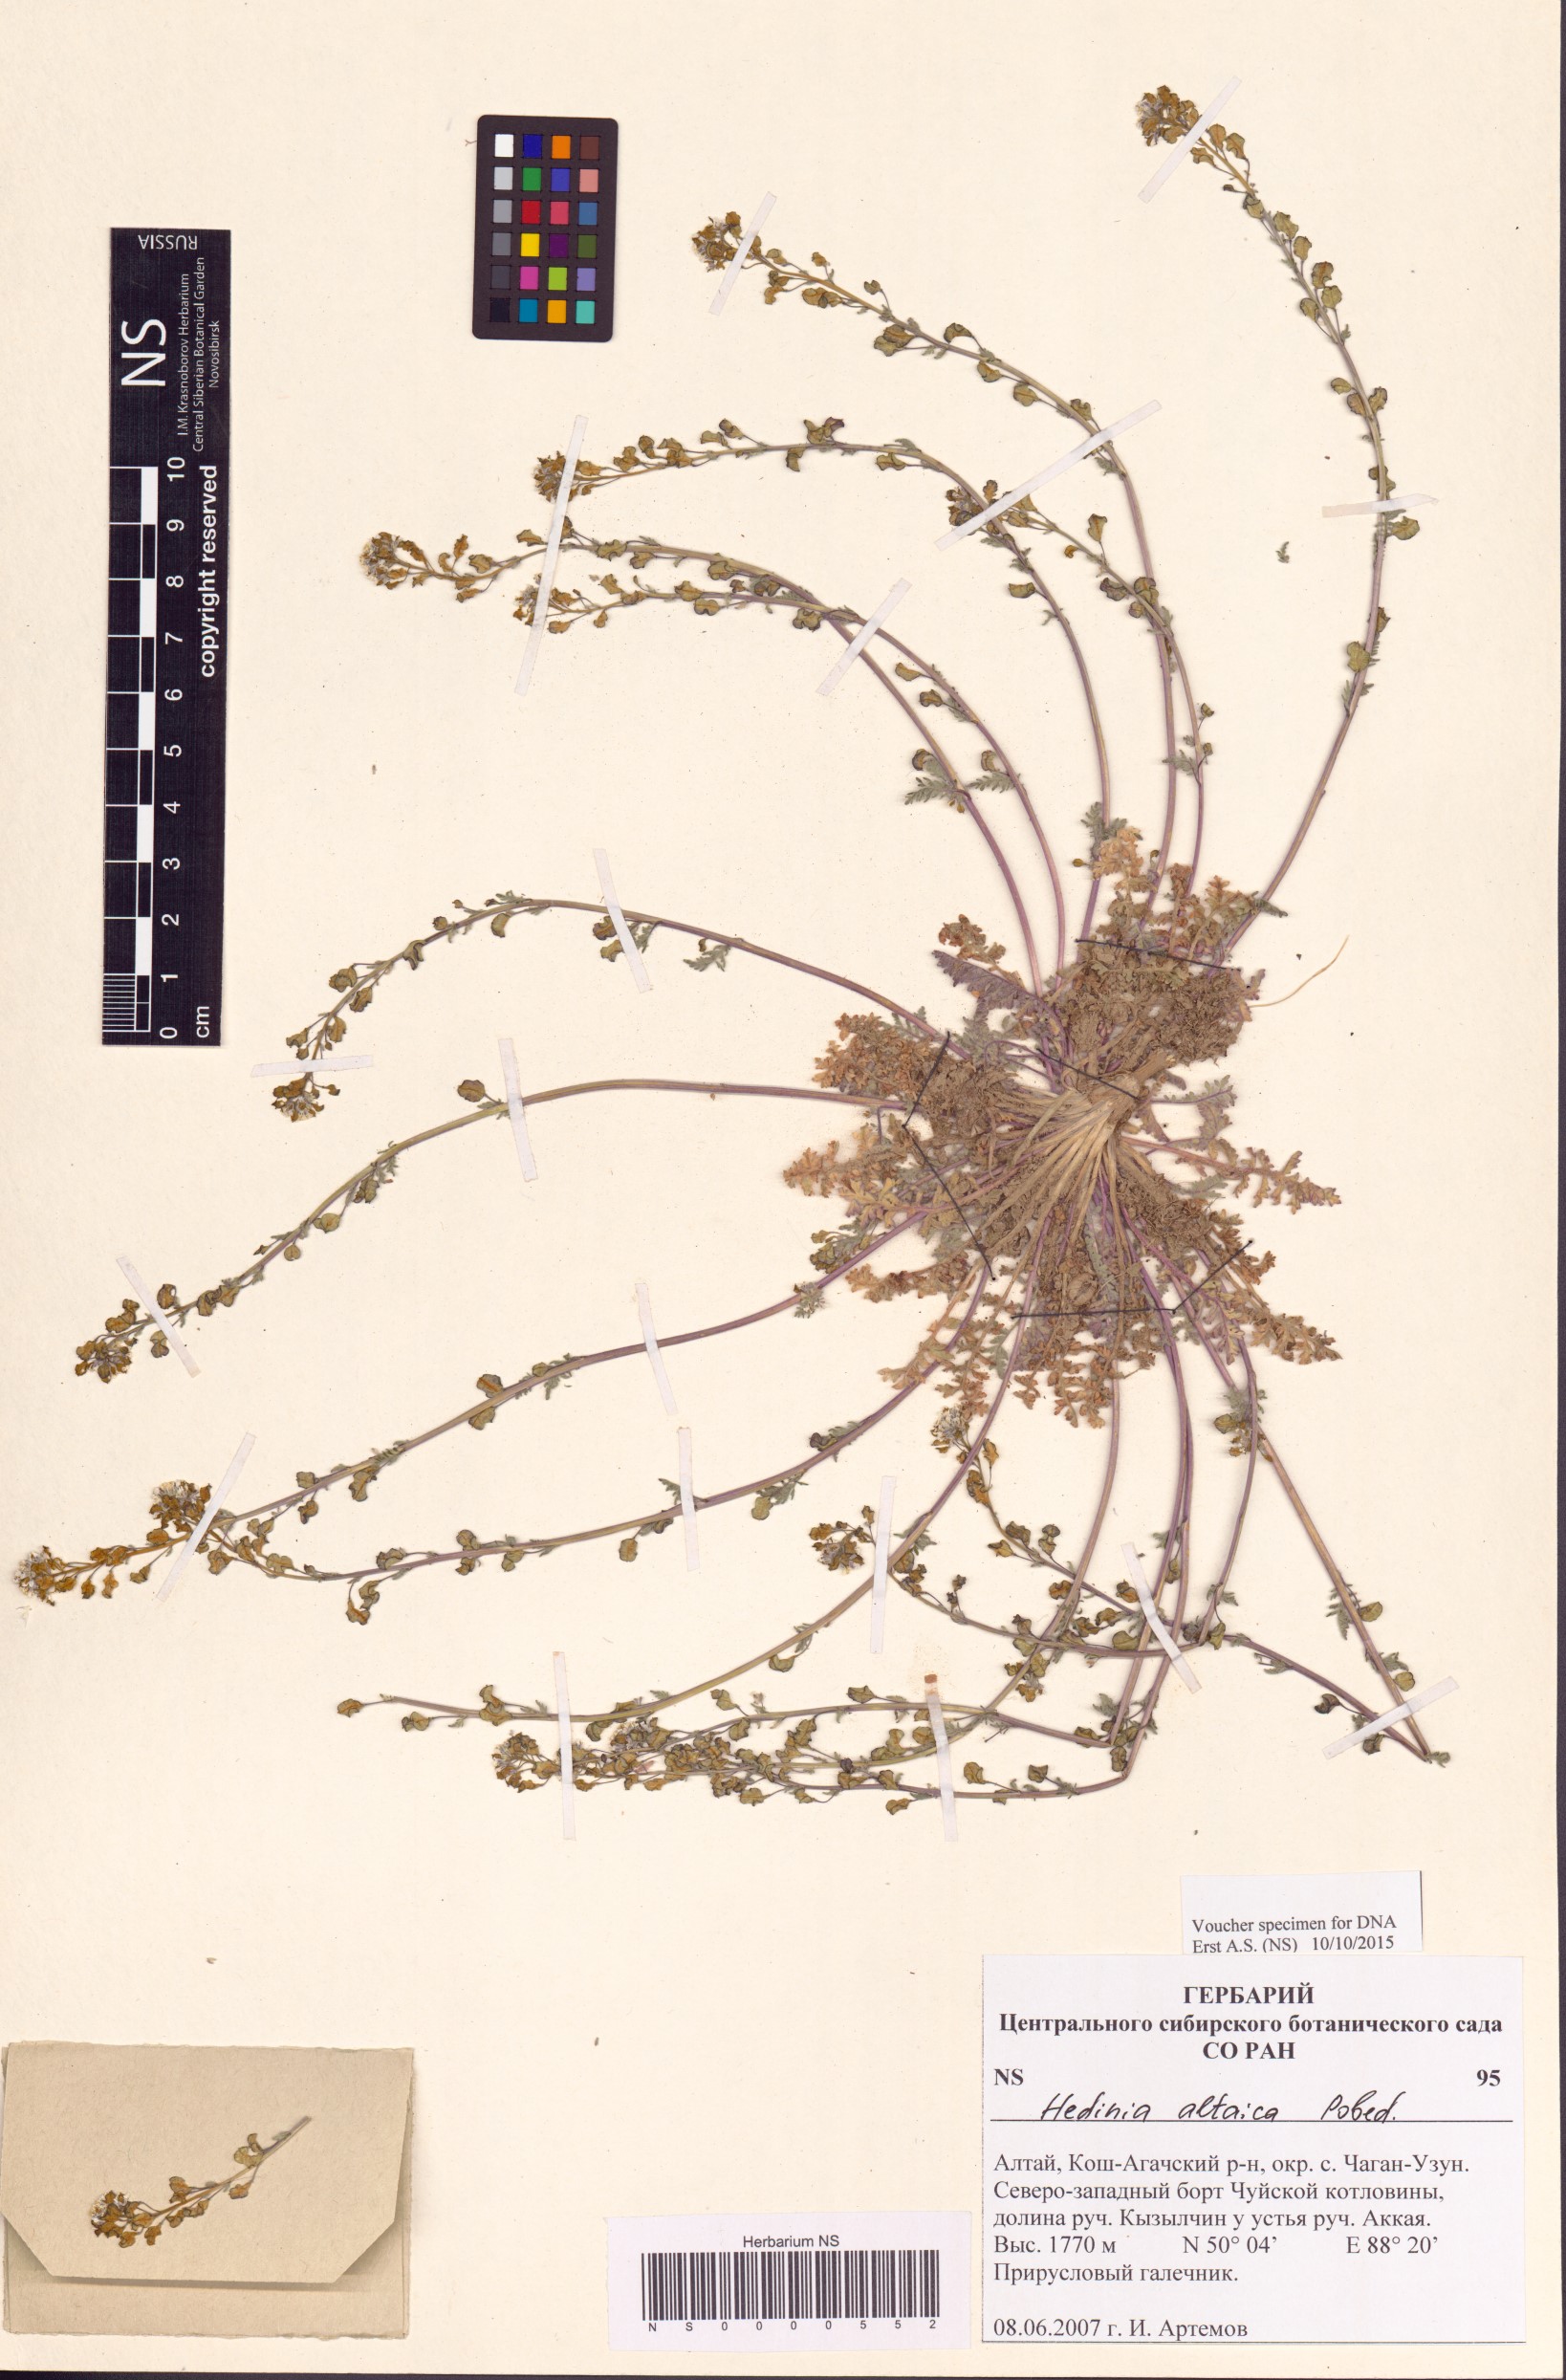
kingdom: Plantae
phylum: Tracheophyta
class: Magnoliopsida
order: Brassicales
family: Brassicaceae
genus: Smelowskia
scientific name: Smelowskia altaica
